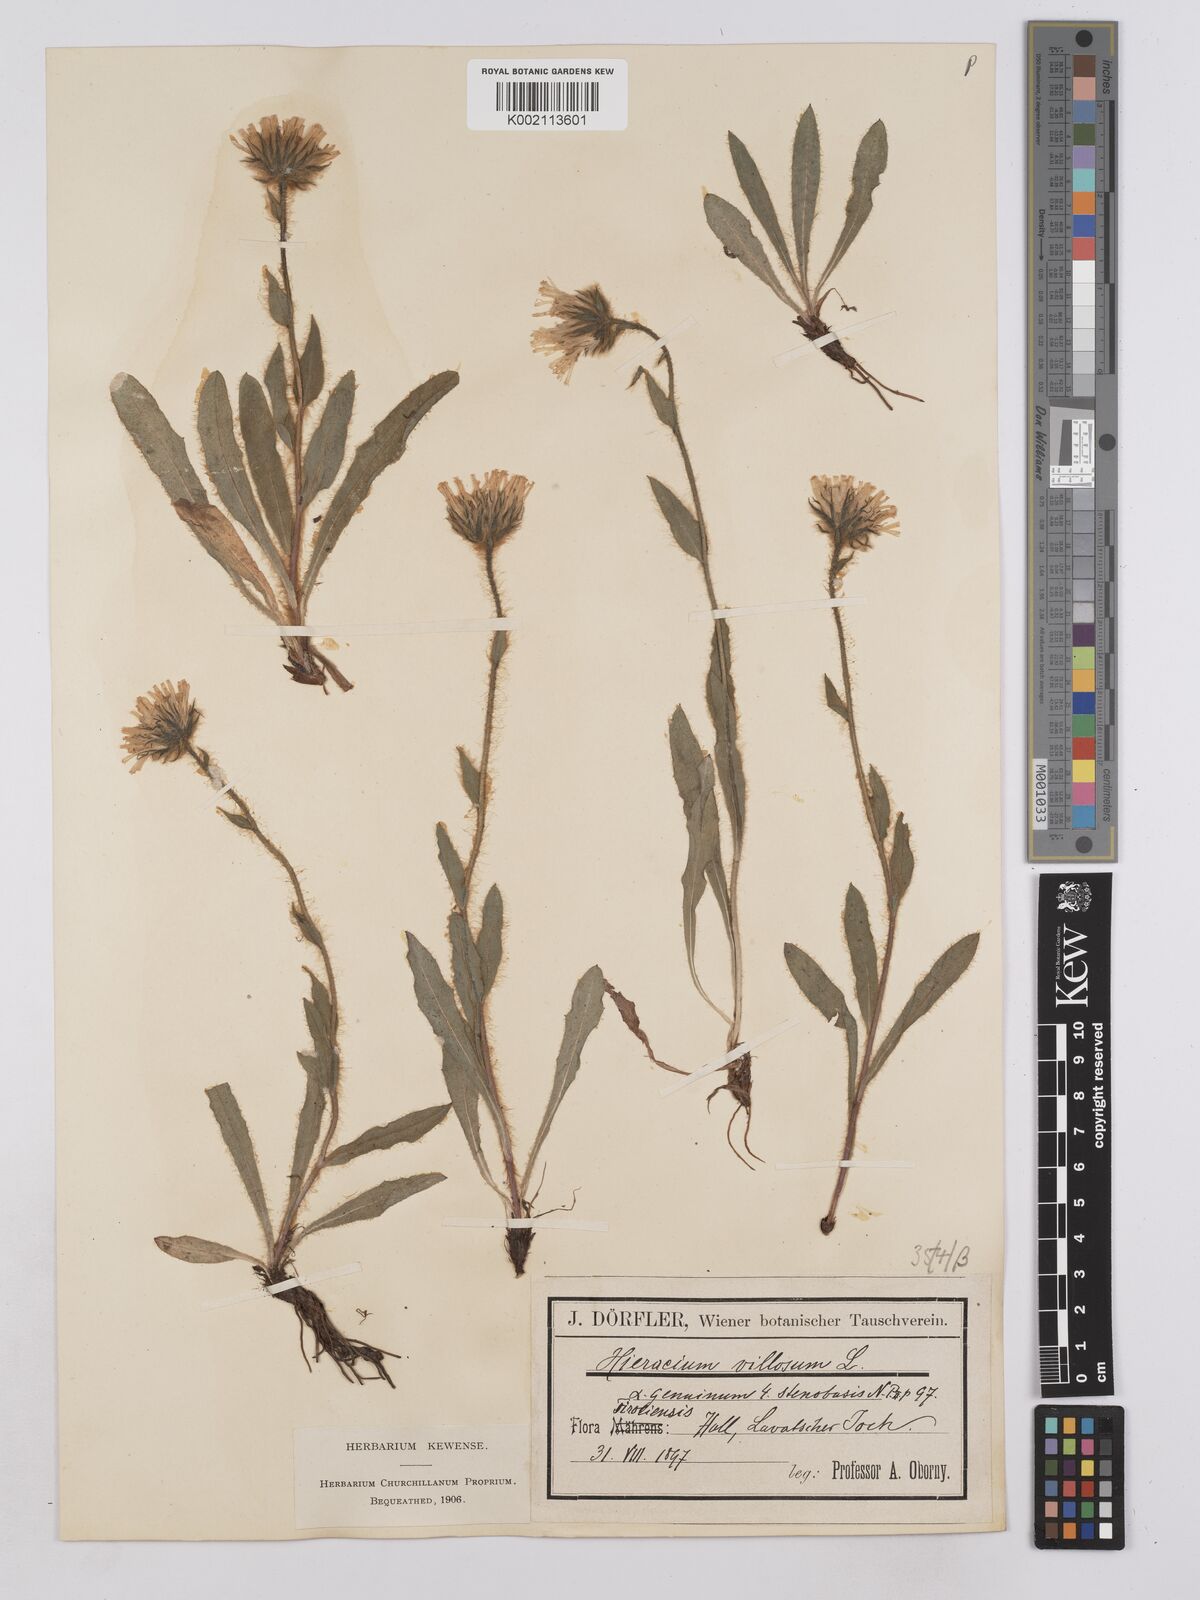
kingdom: Plantae
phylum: Tracheophyta
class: Magnoliopsida
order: Asterales
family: Asteraceae
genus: Hieracium
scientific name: Hieracium villosum
